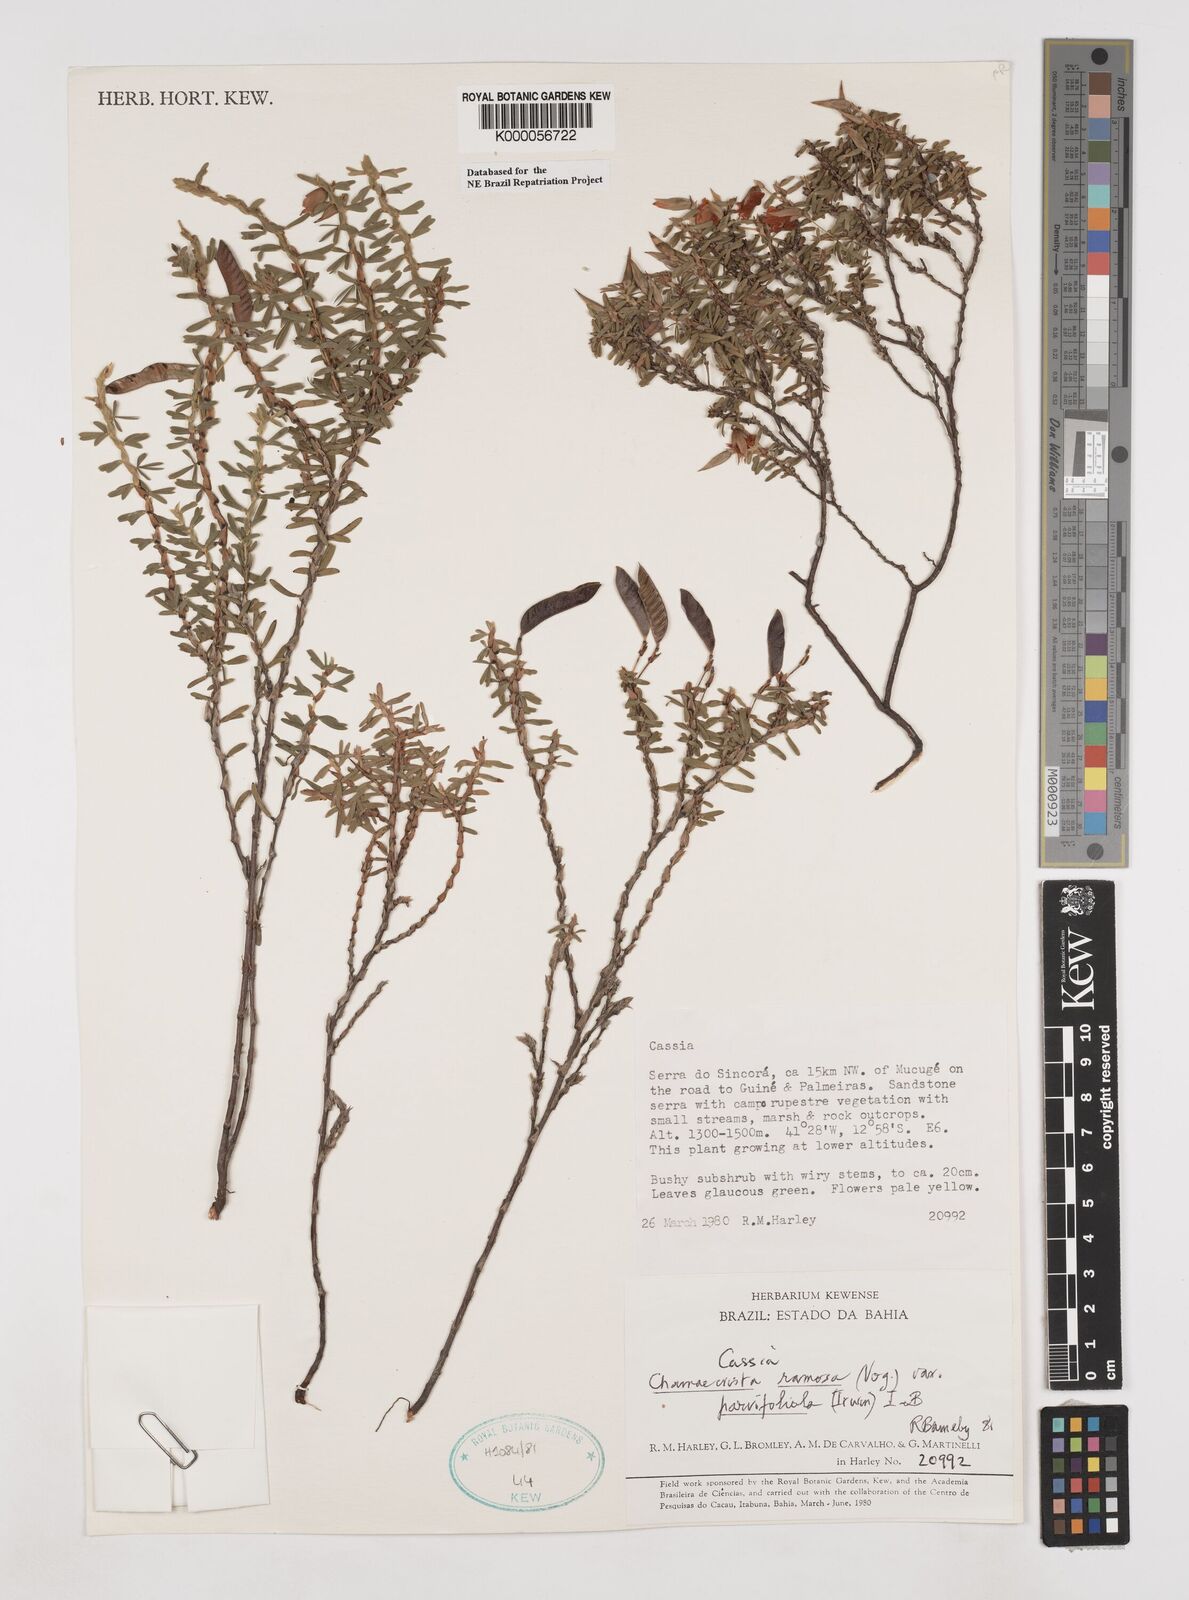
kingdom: Plantae
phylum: Tracheophyta
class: Magnoliopsida
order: Fabales
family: Fabaceae
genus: Chamaecrista
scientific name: Chamaecrista ramosa
